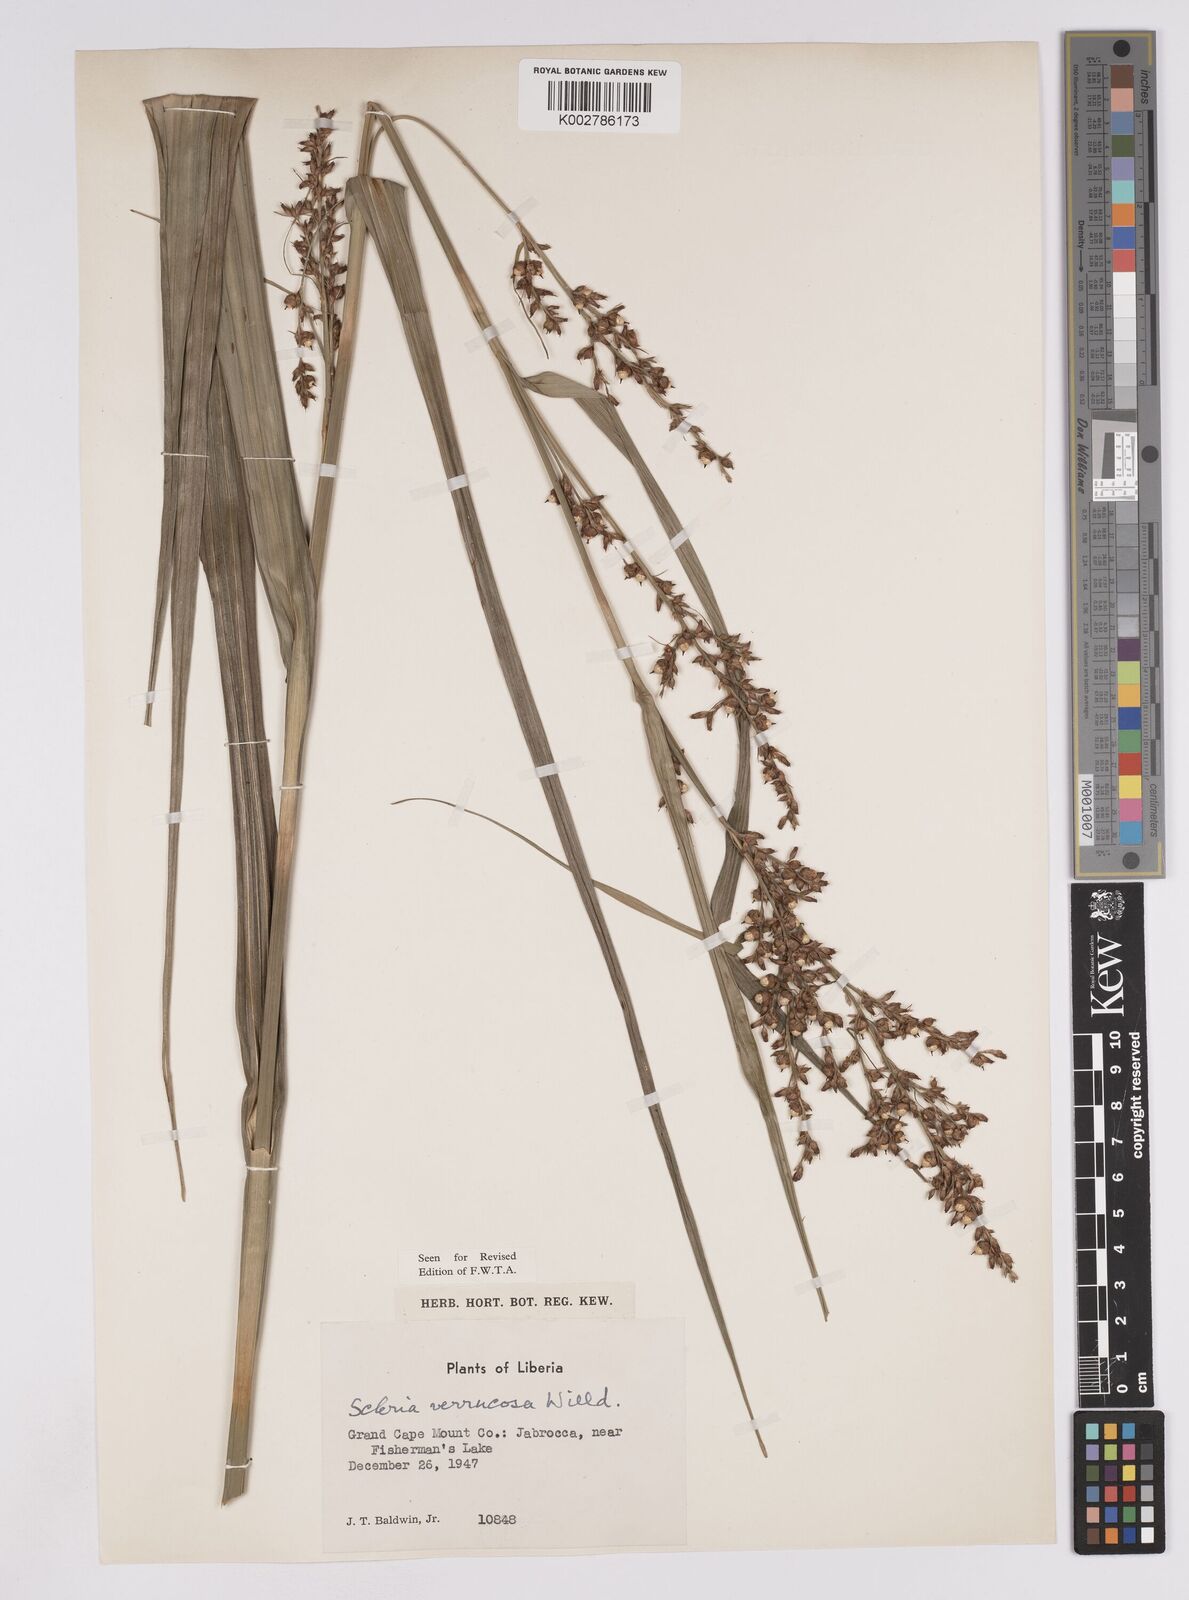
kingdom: Plantae
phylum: Tracheophyta
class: Liliopsida
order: Poales
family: Cyperaceae
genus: Scleria
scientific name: Scleria verrucosa
